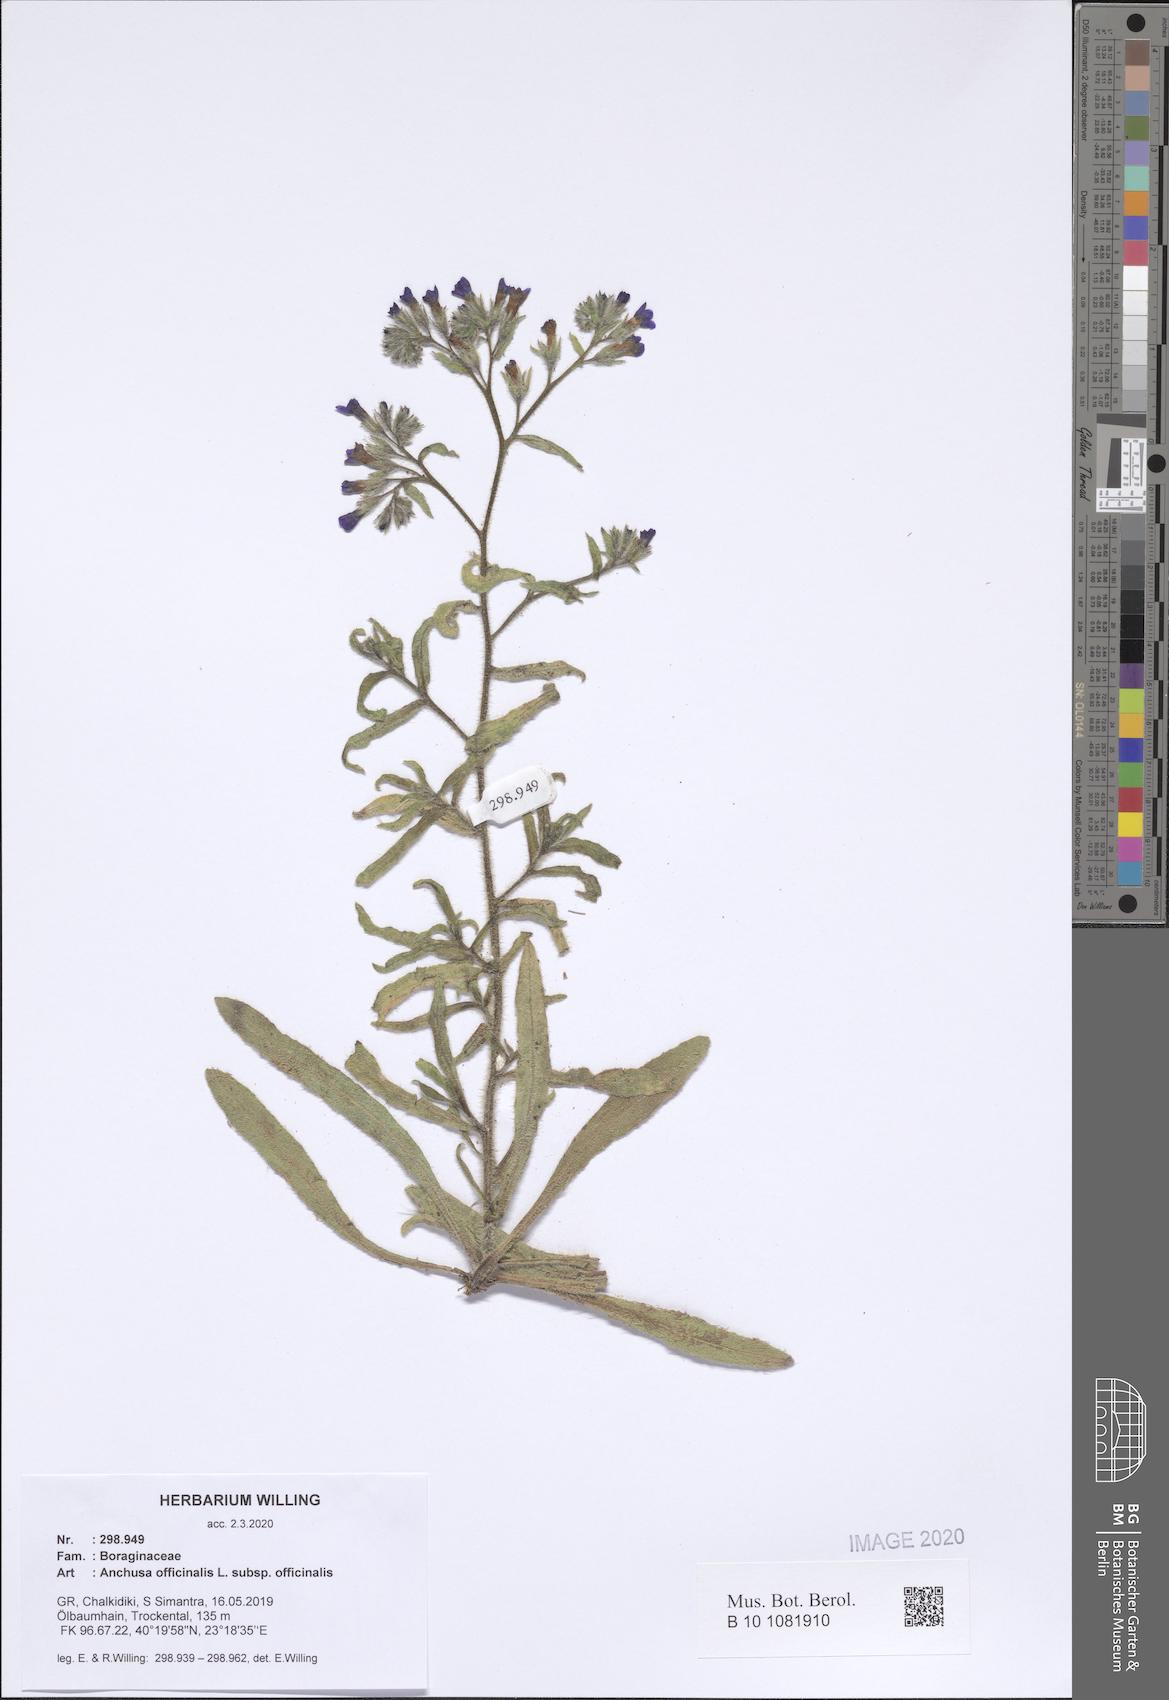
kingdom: Plantae
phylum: Tracheophyta
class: Magnoliopsida
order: Boraginales
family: Boraginaceae
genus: Anchusa
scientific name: Anchusa officinalis
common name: Alkanet
